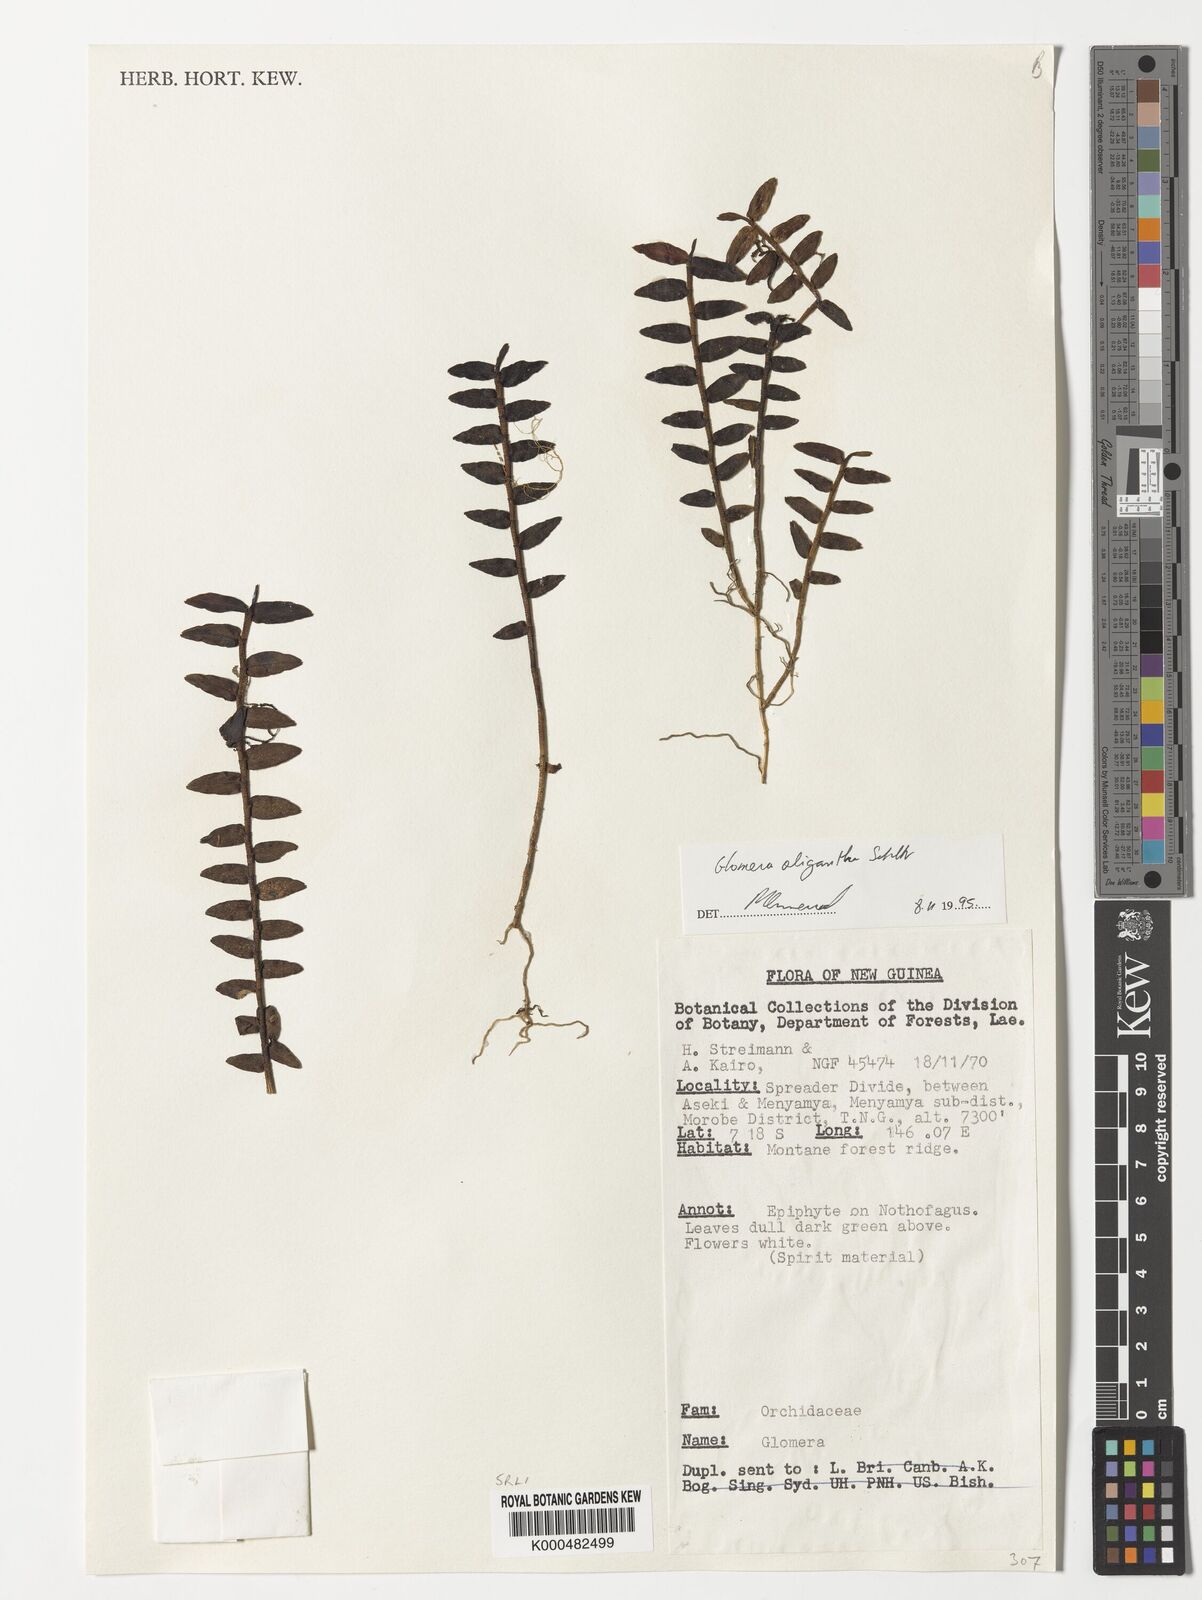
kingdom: Plantae
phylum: Tracheophyta
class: Liliopsida
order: Asparagales
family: Orchidaceae
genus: Glomera
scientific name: Glomera oligantha
